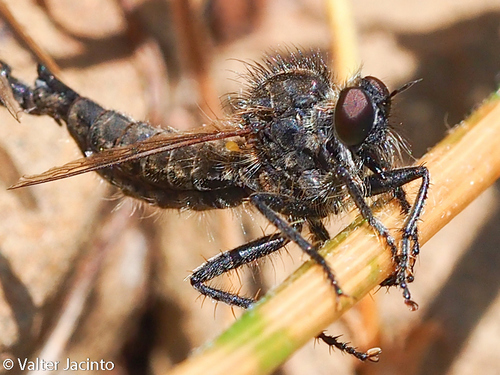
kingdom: Animalia
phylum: Arthropoda
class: Insecta
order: Diptera
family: Asilidae
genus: Dysmachus
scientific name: Dysmachus trigonus
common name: Fan-bristled robberfly
